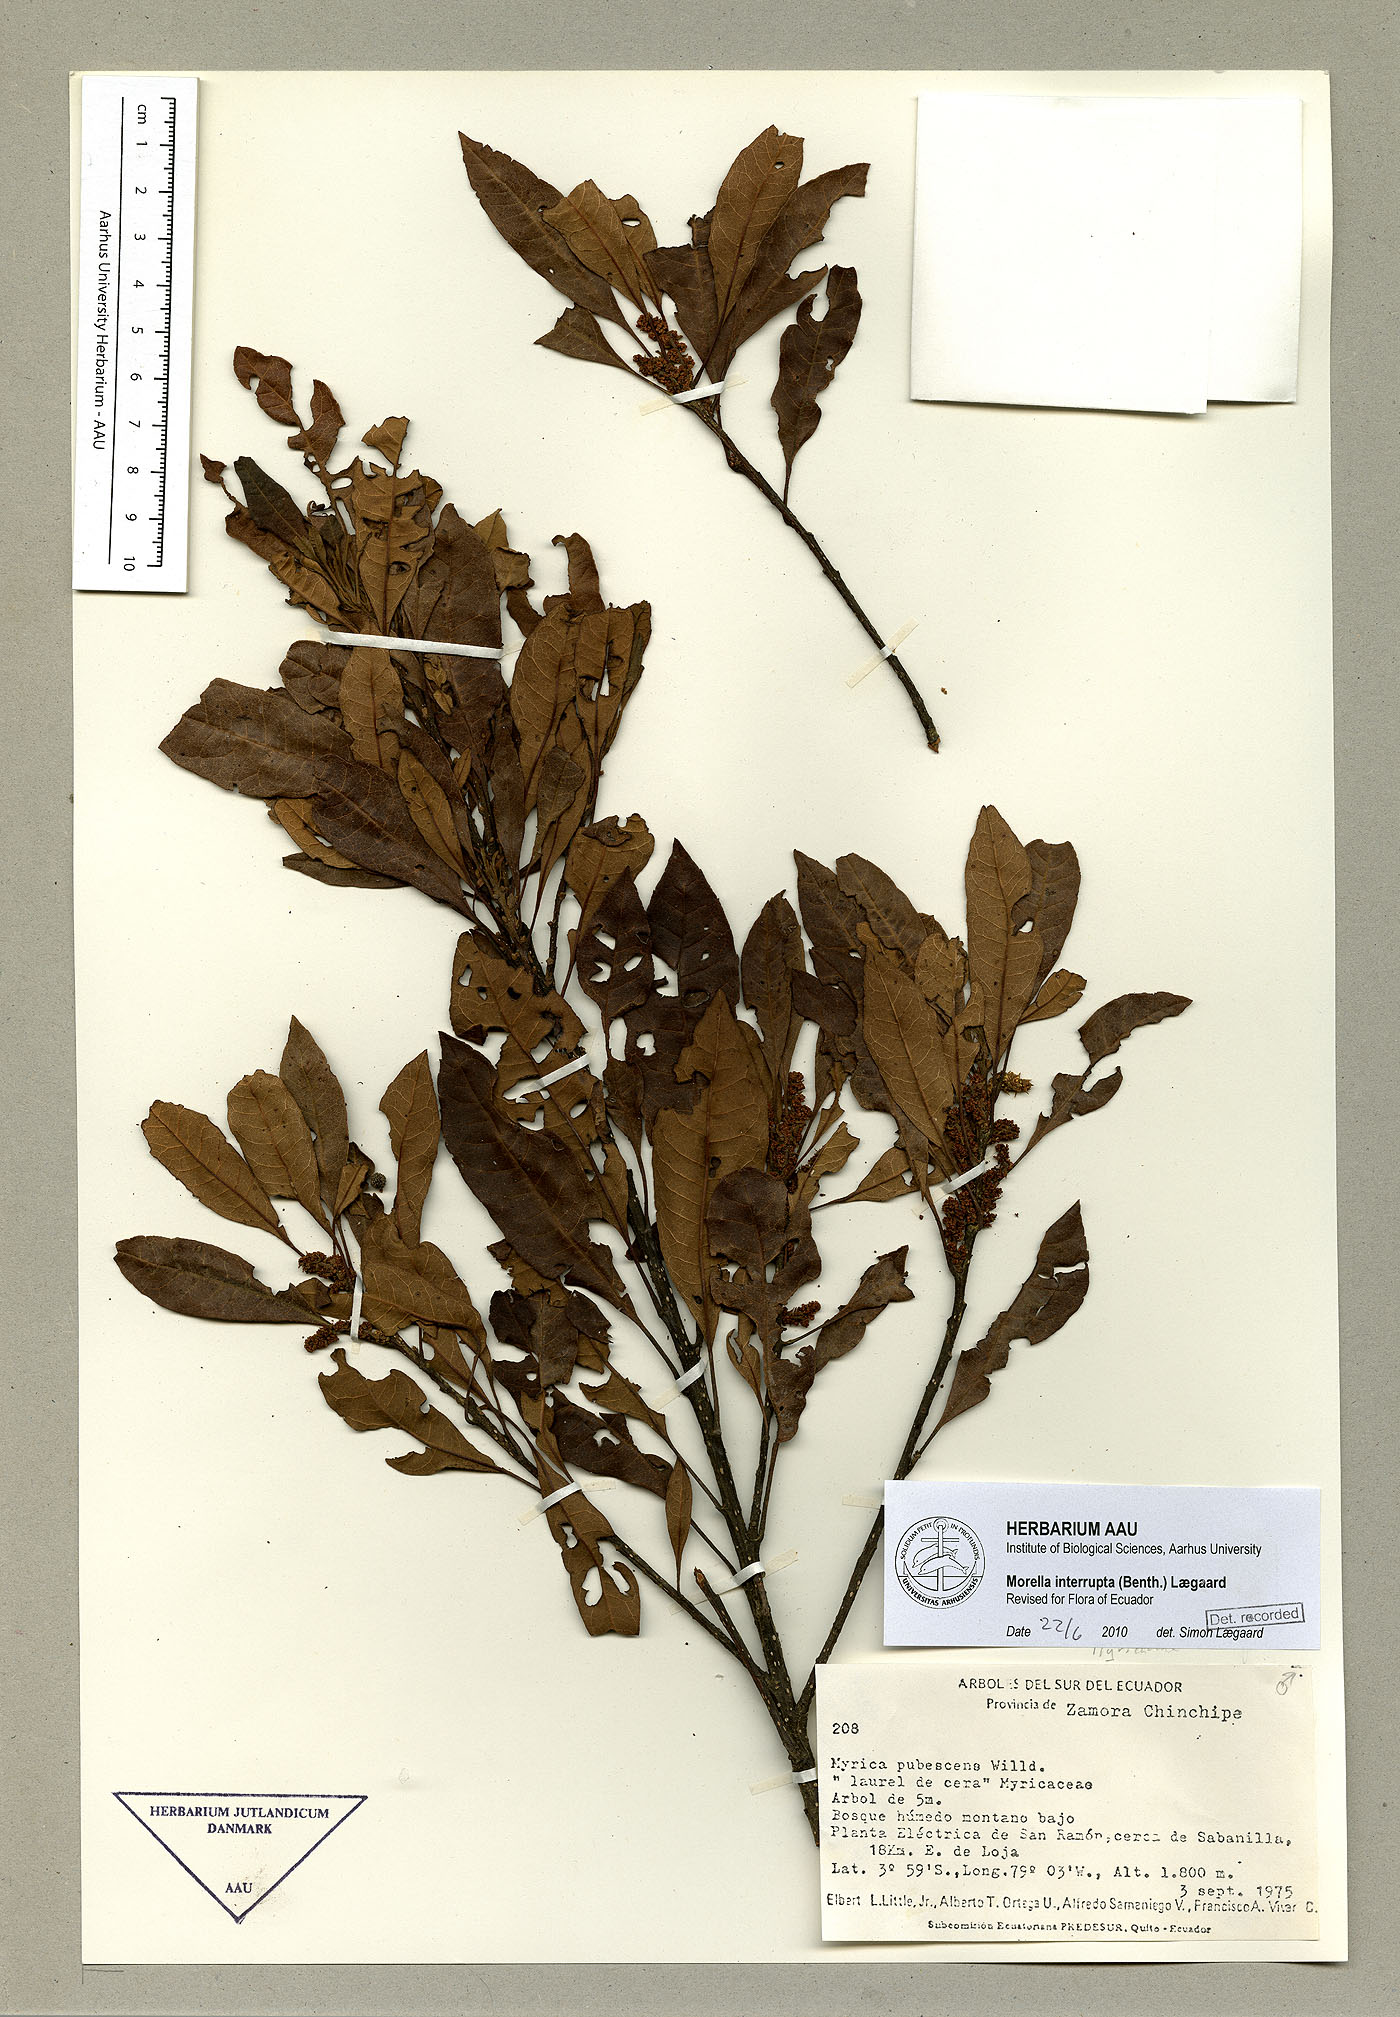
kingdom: Plantae
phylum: Tracheophyta
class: Magnoliopsida
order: Fagales
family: Myricaceae
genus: Morella
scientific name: Morella interrupta
